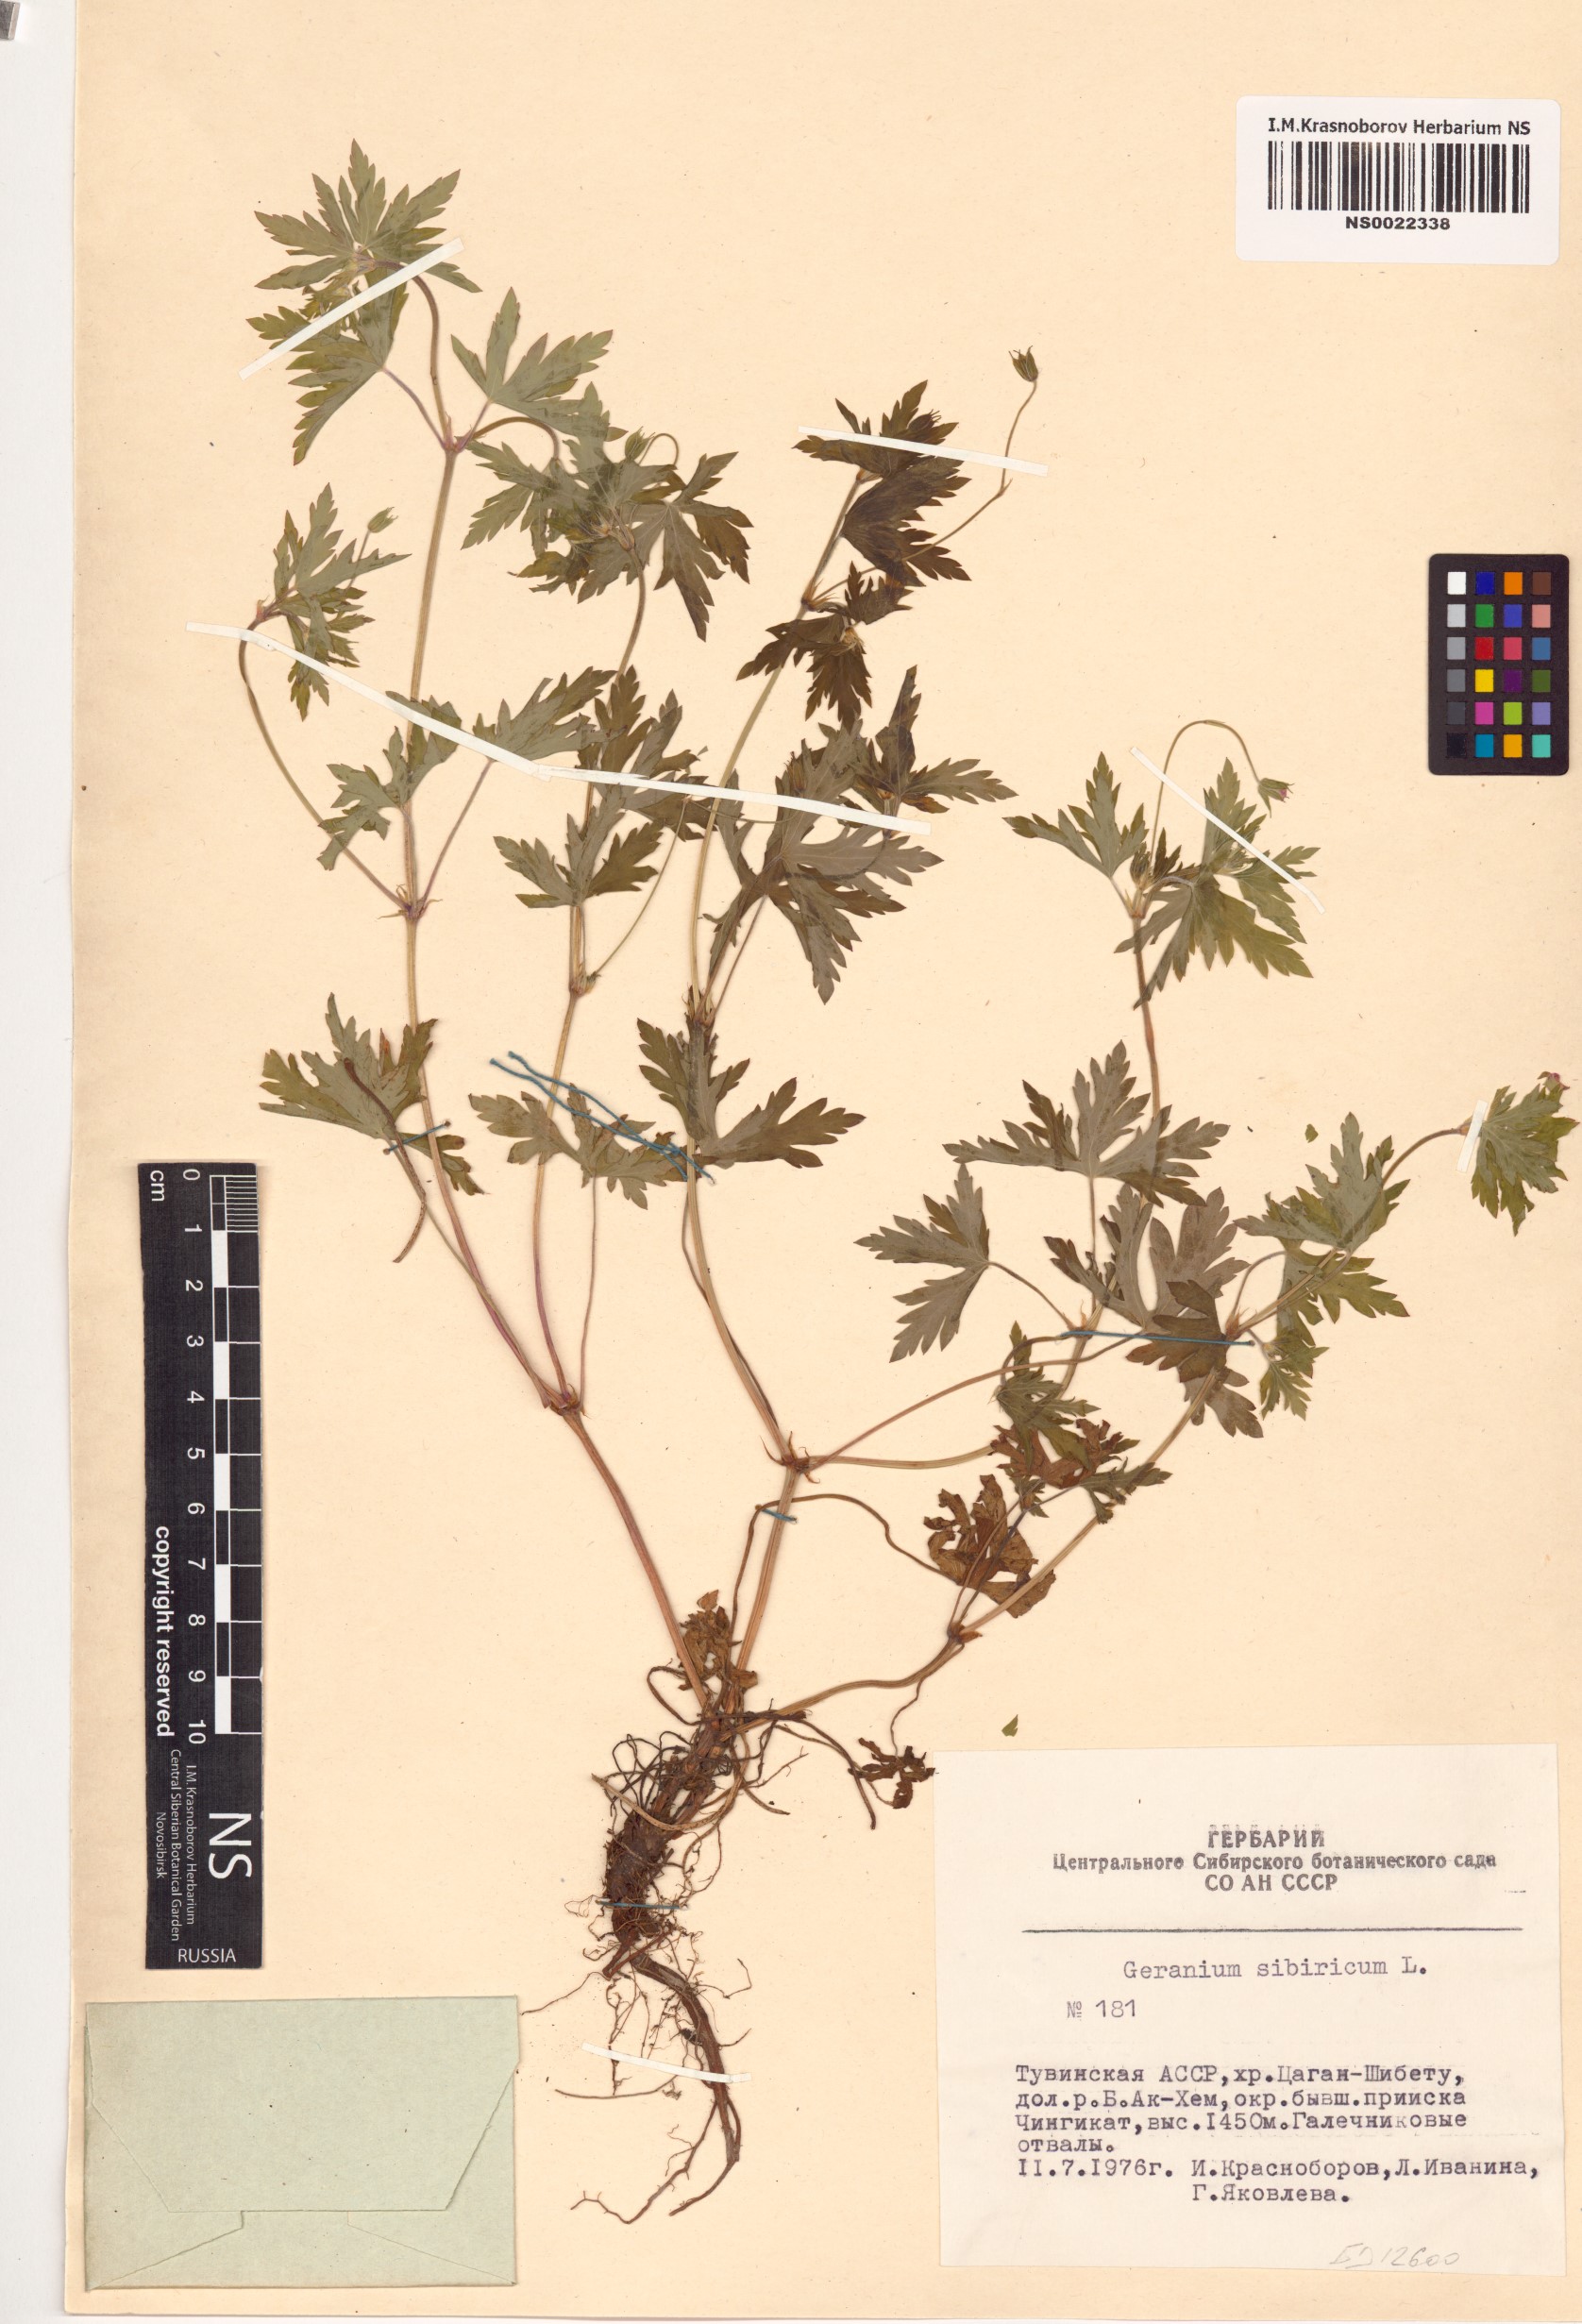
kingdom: Plantae
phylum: Tracheophyta
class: Magnoliopsida
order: Geraniales
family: Geraniaceae
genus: Geranium
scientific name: Geranium sibiricum
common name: Siberian crane's-bill
